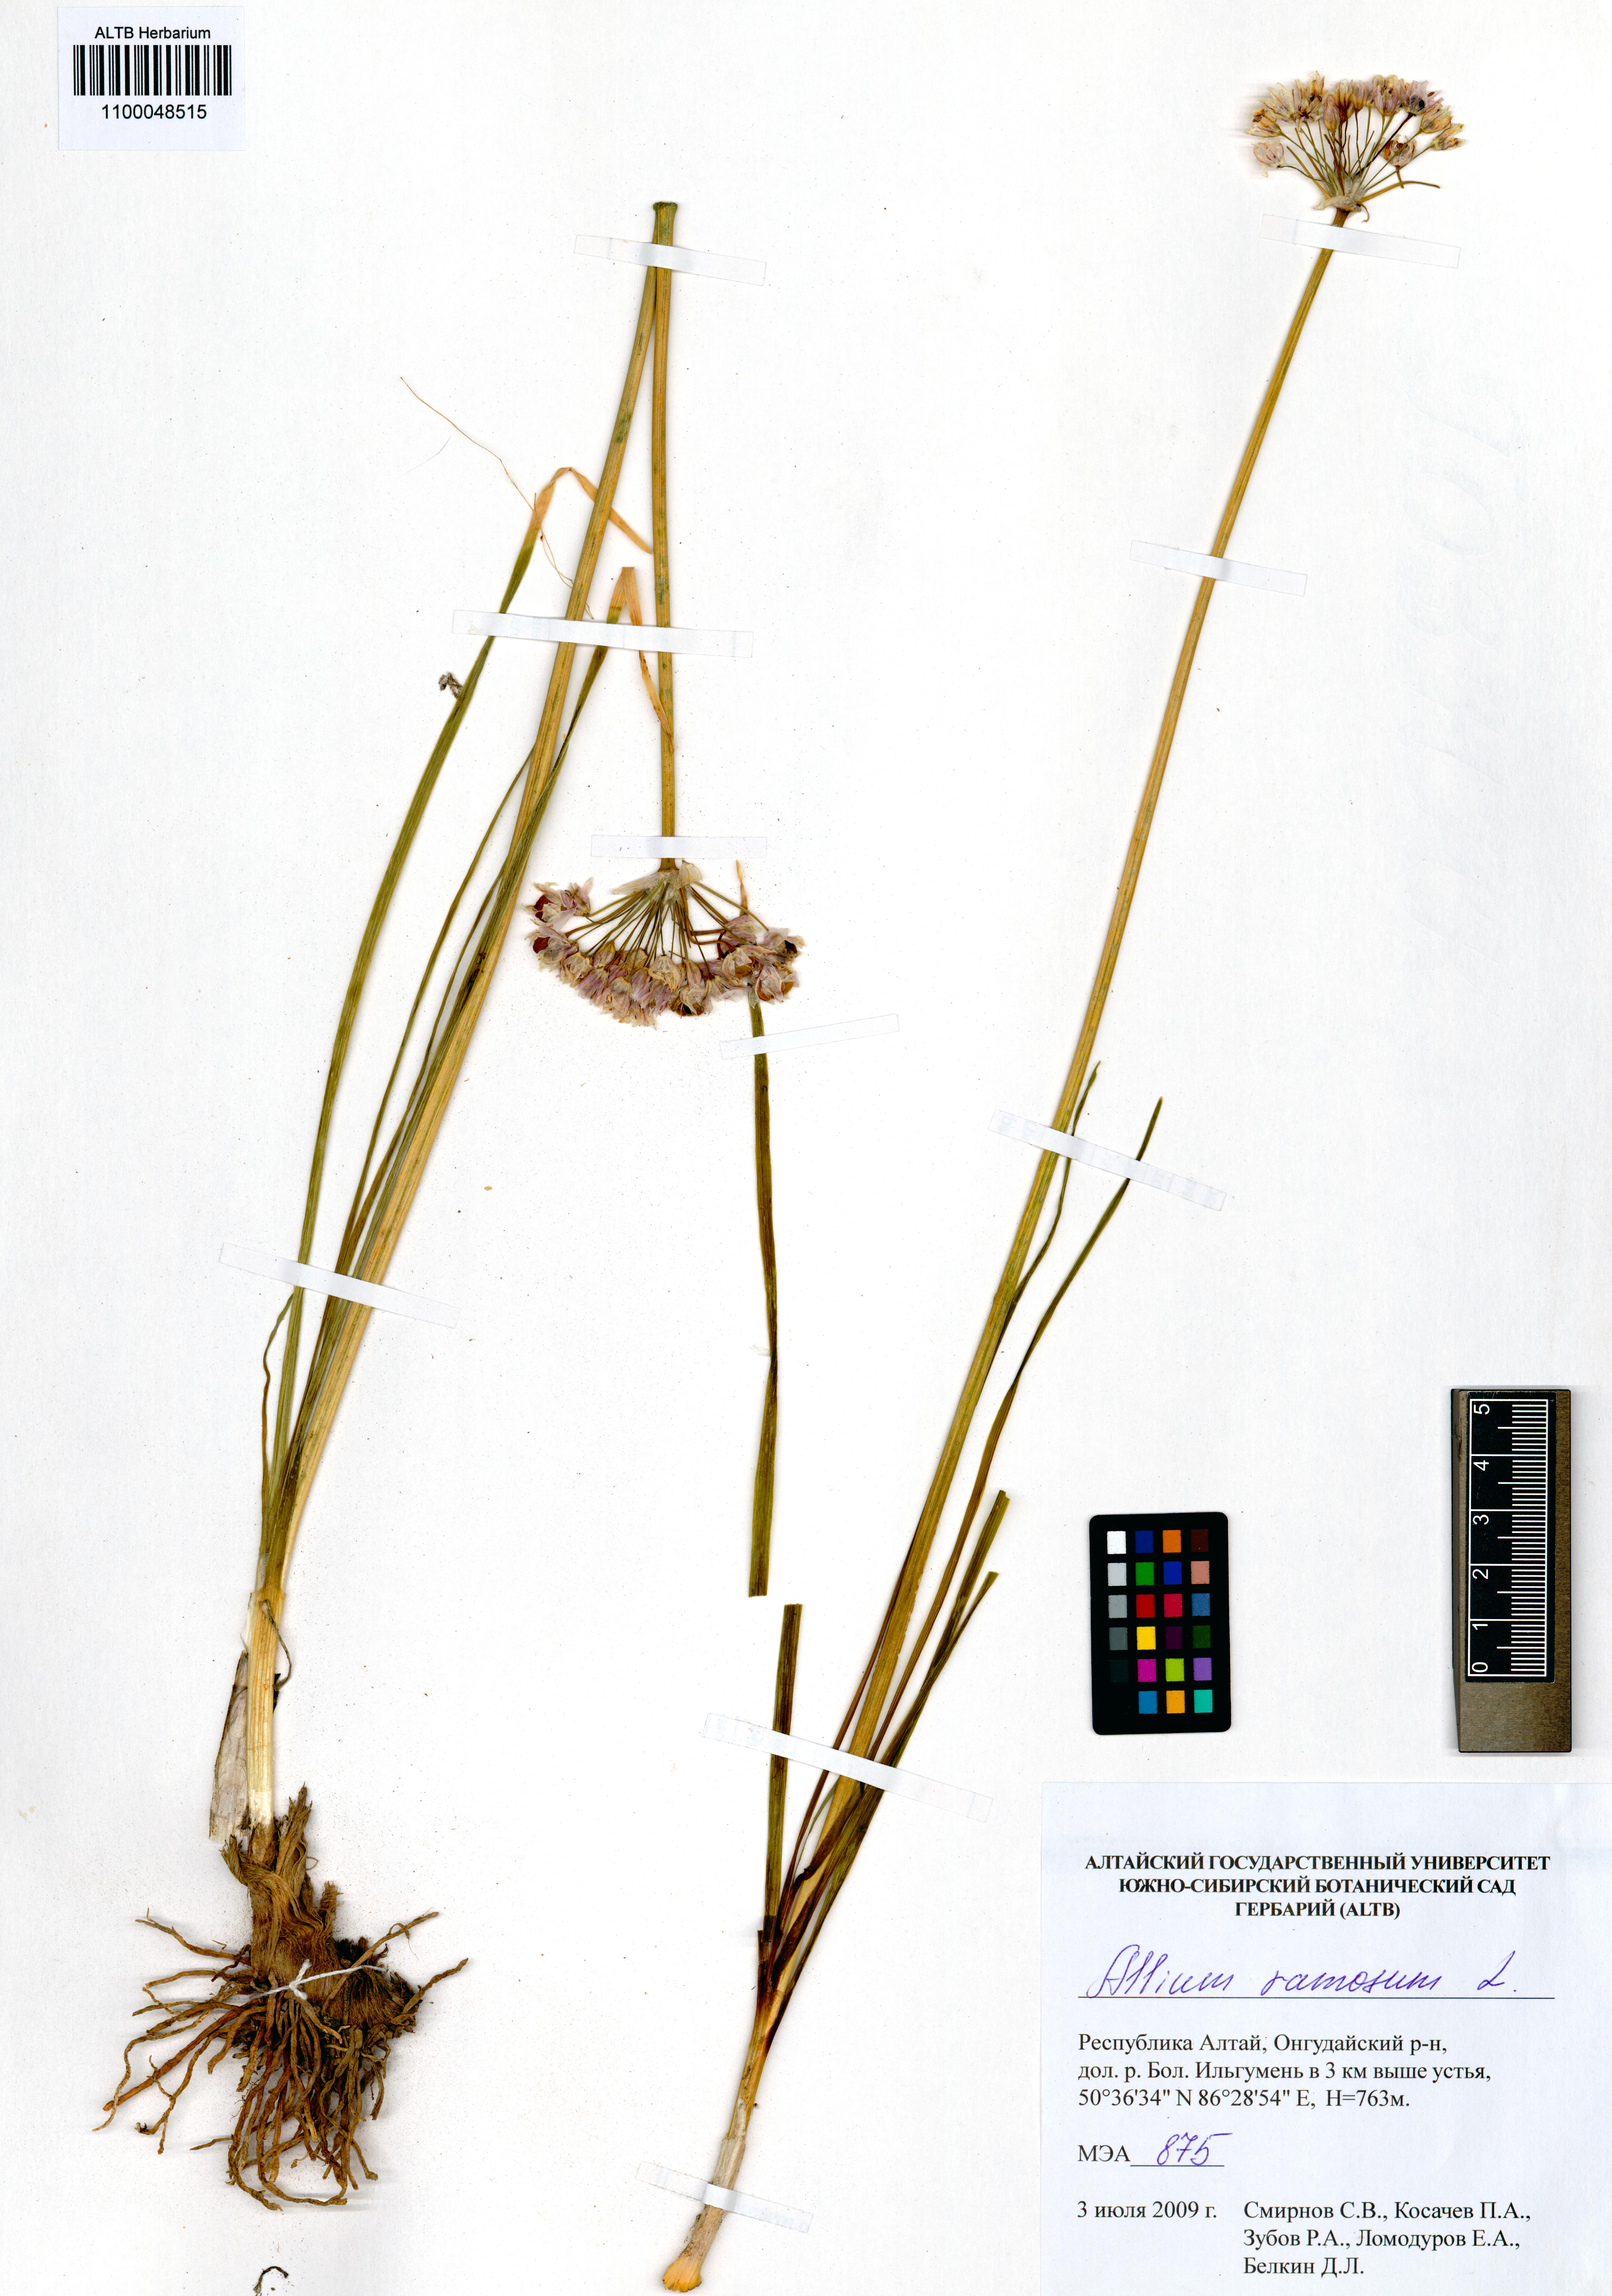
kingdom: Plantae
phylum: Tracheophyta
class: Liliopsida
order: Asparagales
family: Amaryllidaceae
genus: Allium
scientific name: Allium ramosum
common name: Fragrant garlic
